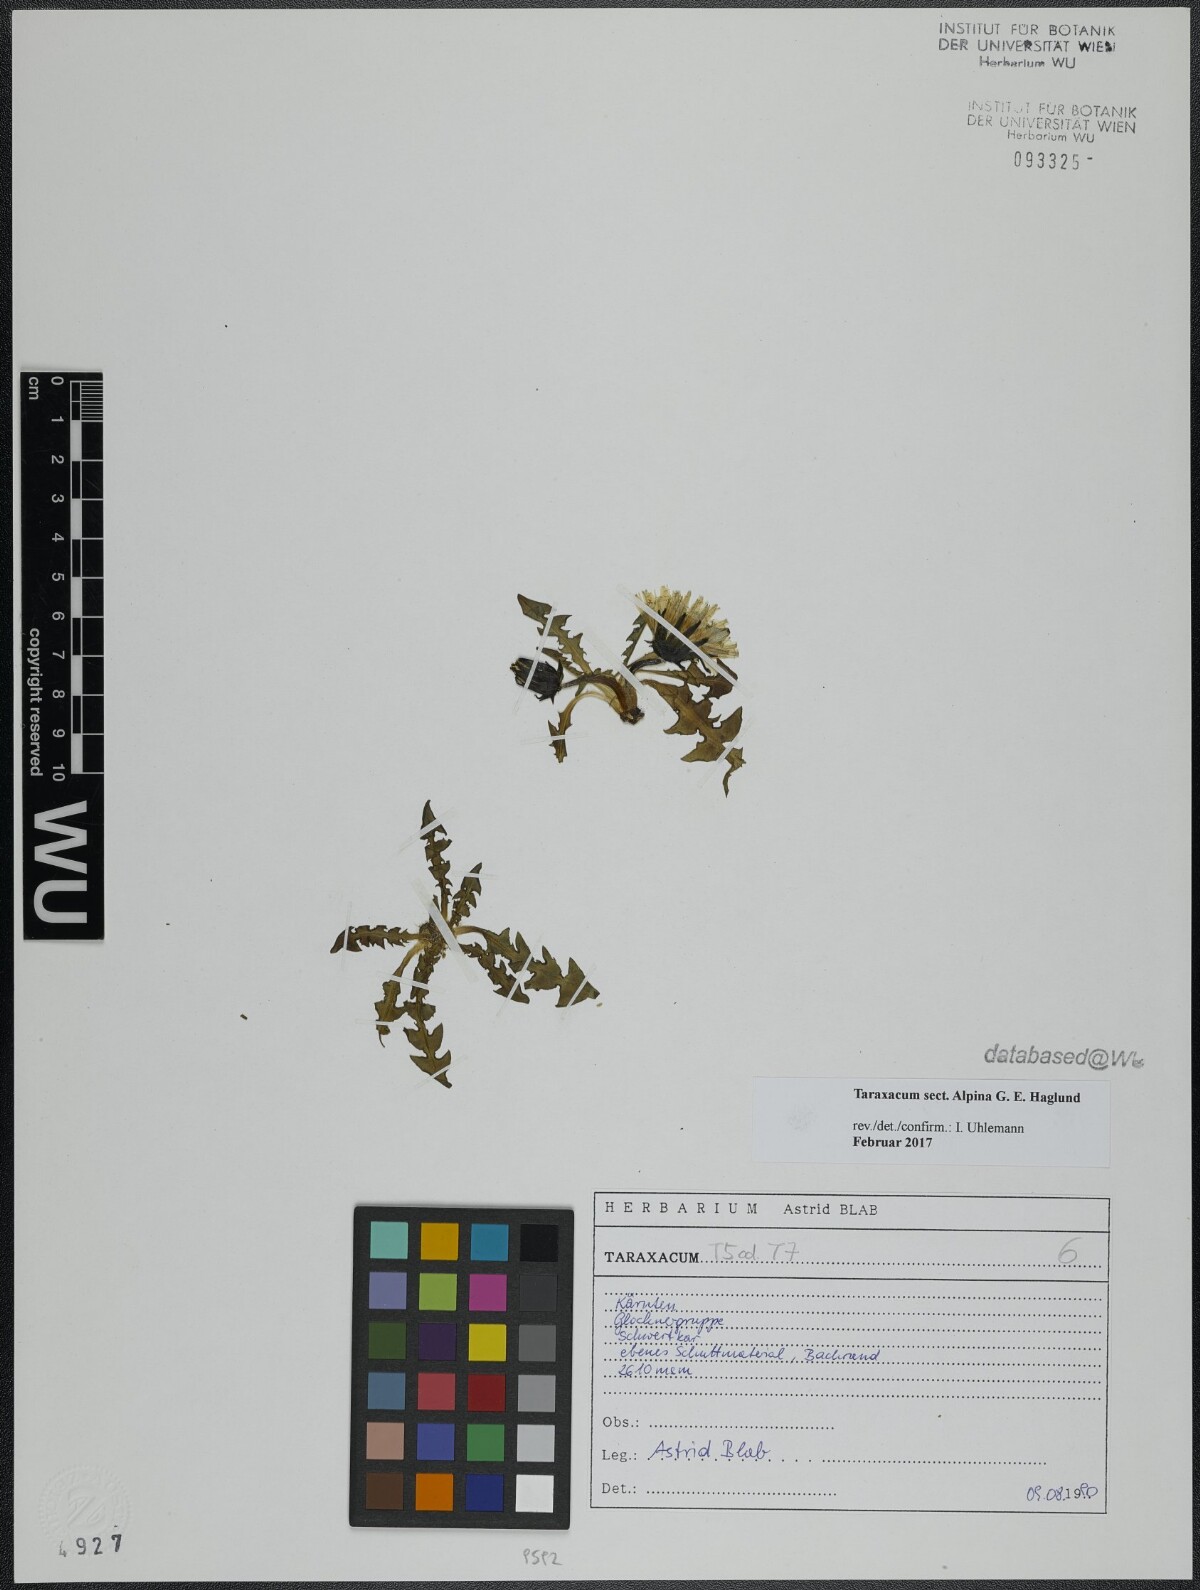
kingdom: Plantae
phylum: Tracheophyta
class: Magnoliopsida
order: Asterales
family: Asteraceae
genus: Taraxacum
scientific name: Taraxacum
